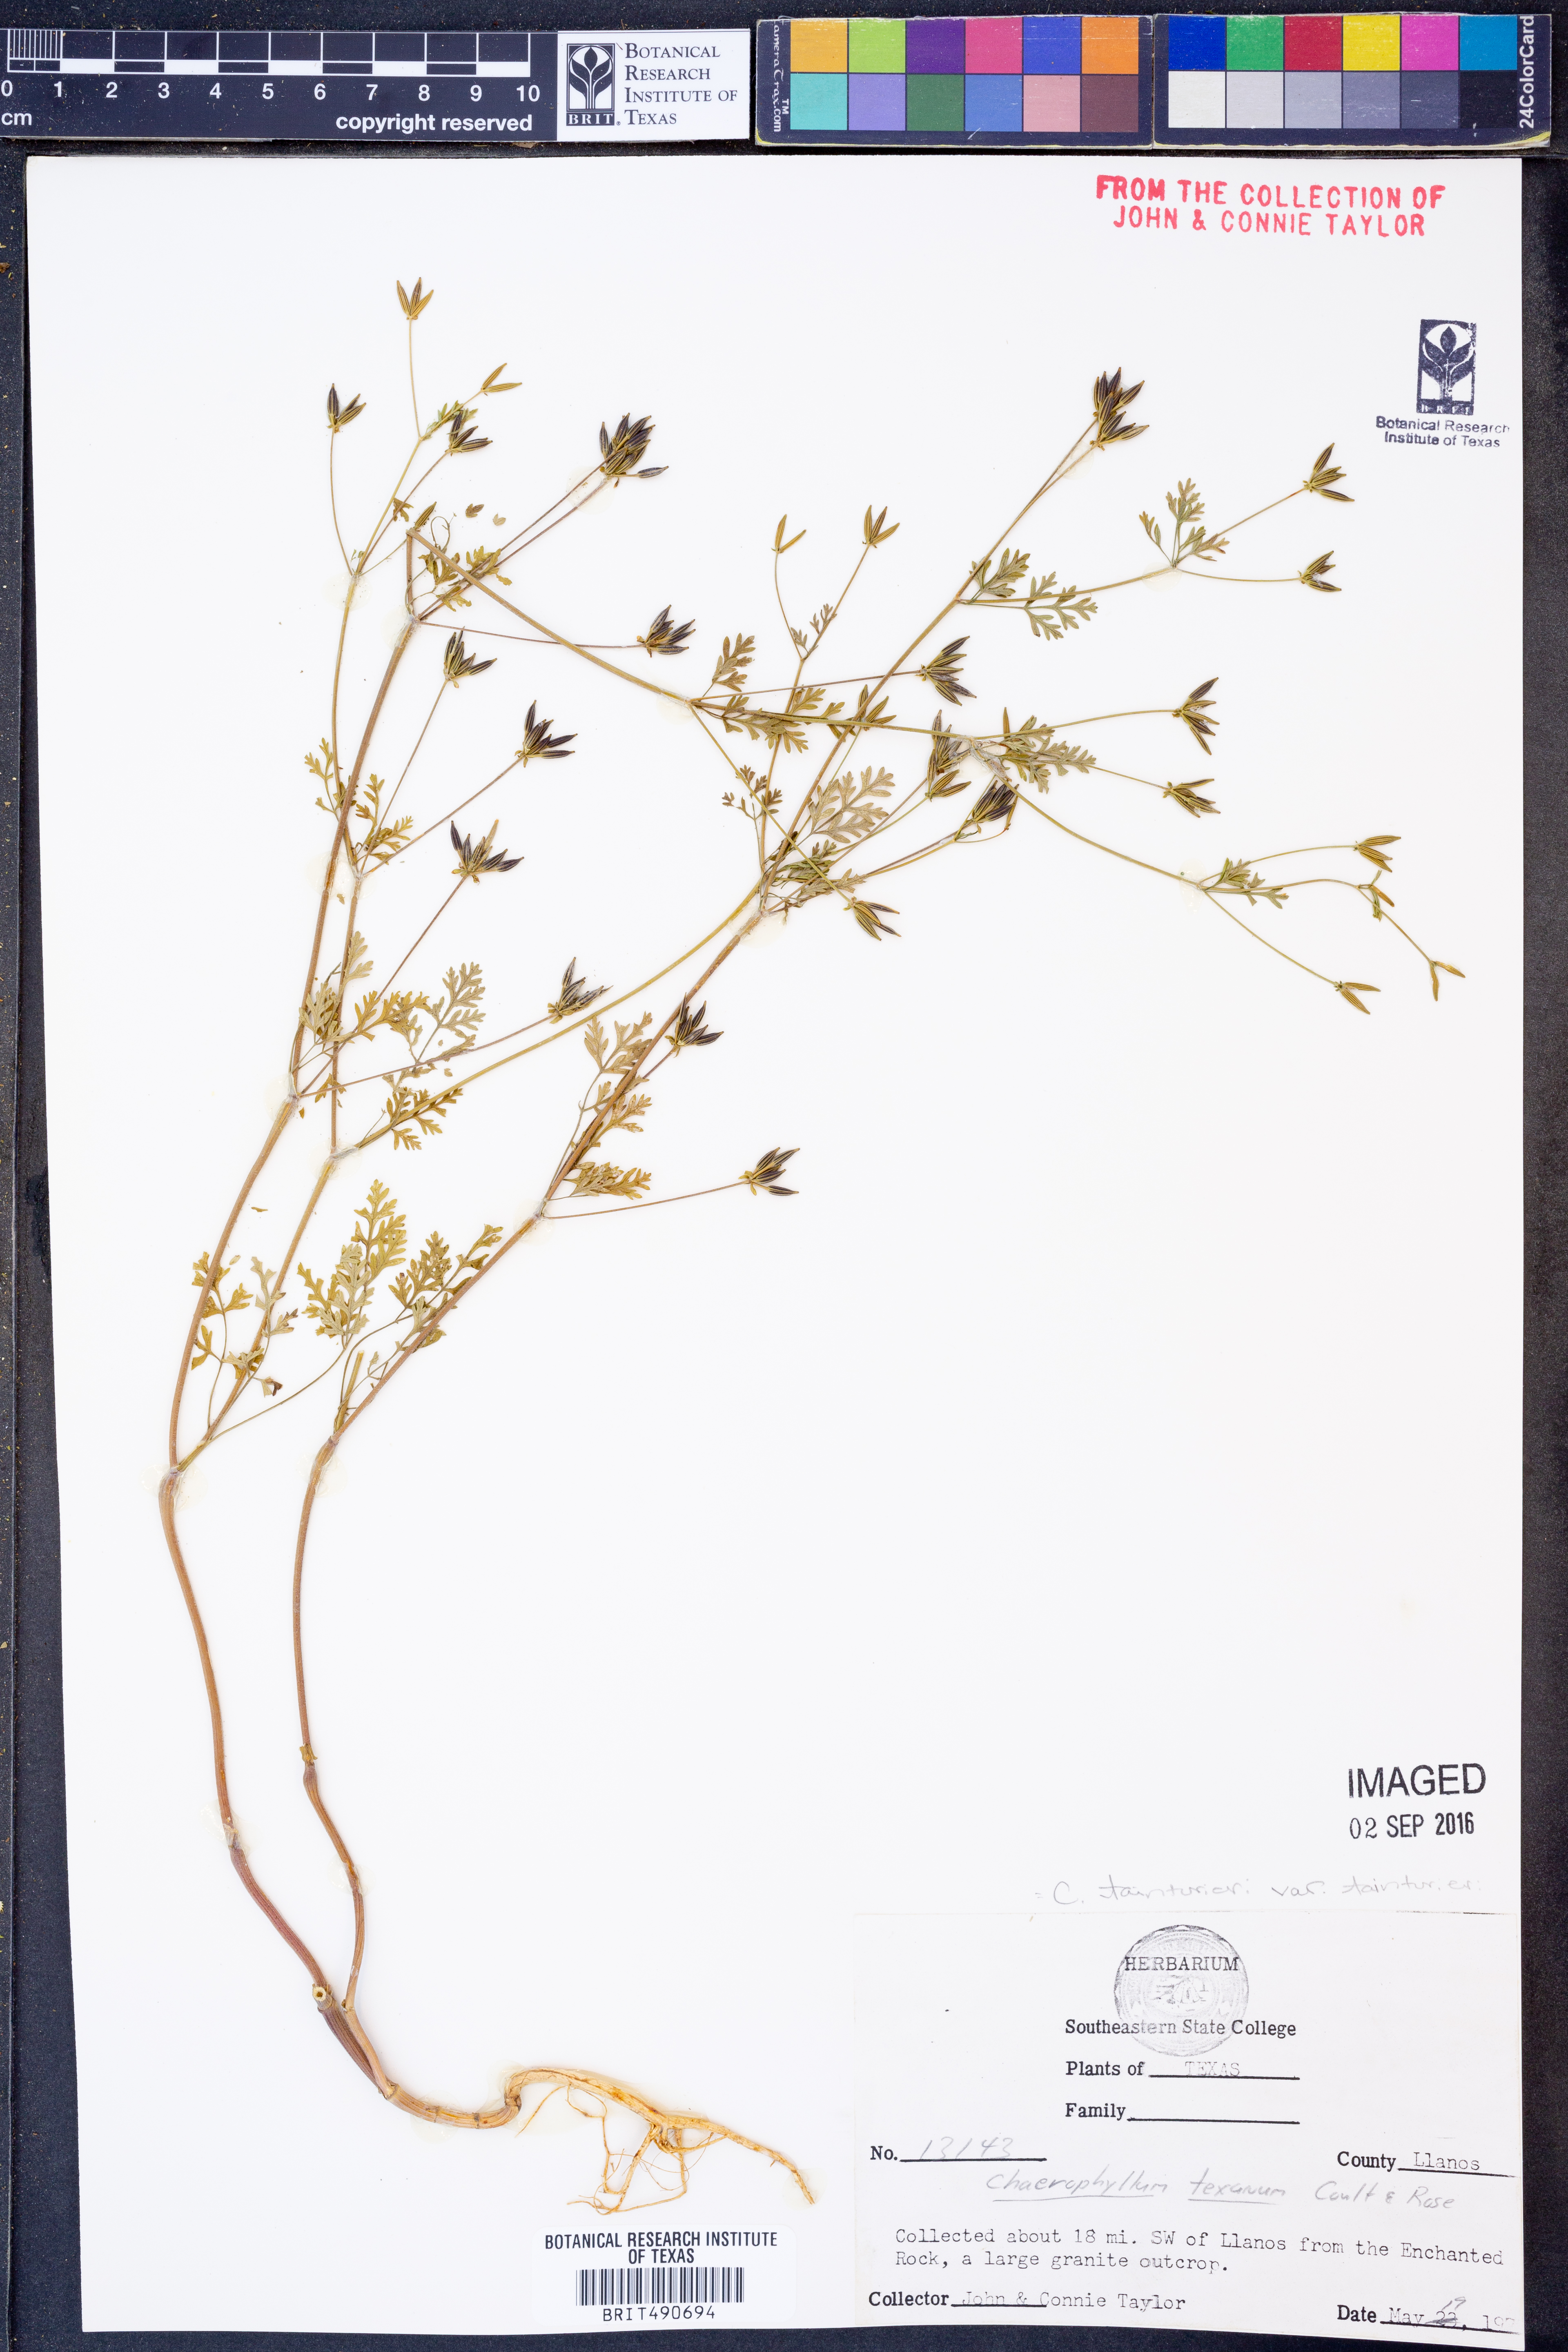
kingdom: Plantae
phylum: Tracheophyta
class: Magnoliopsida
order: Apiales
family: Apiaceae
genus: Chaerophyllum
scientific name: Chaerophyllum tainturieri
